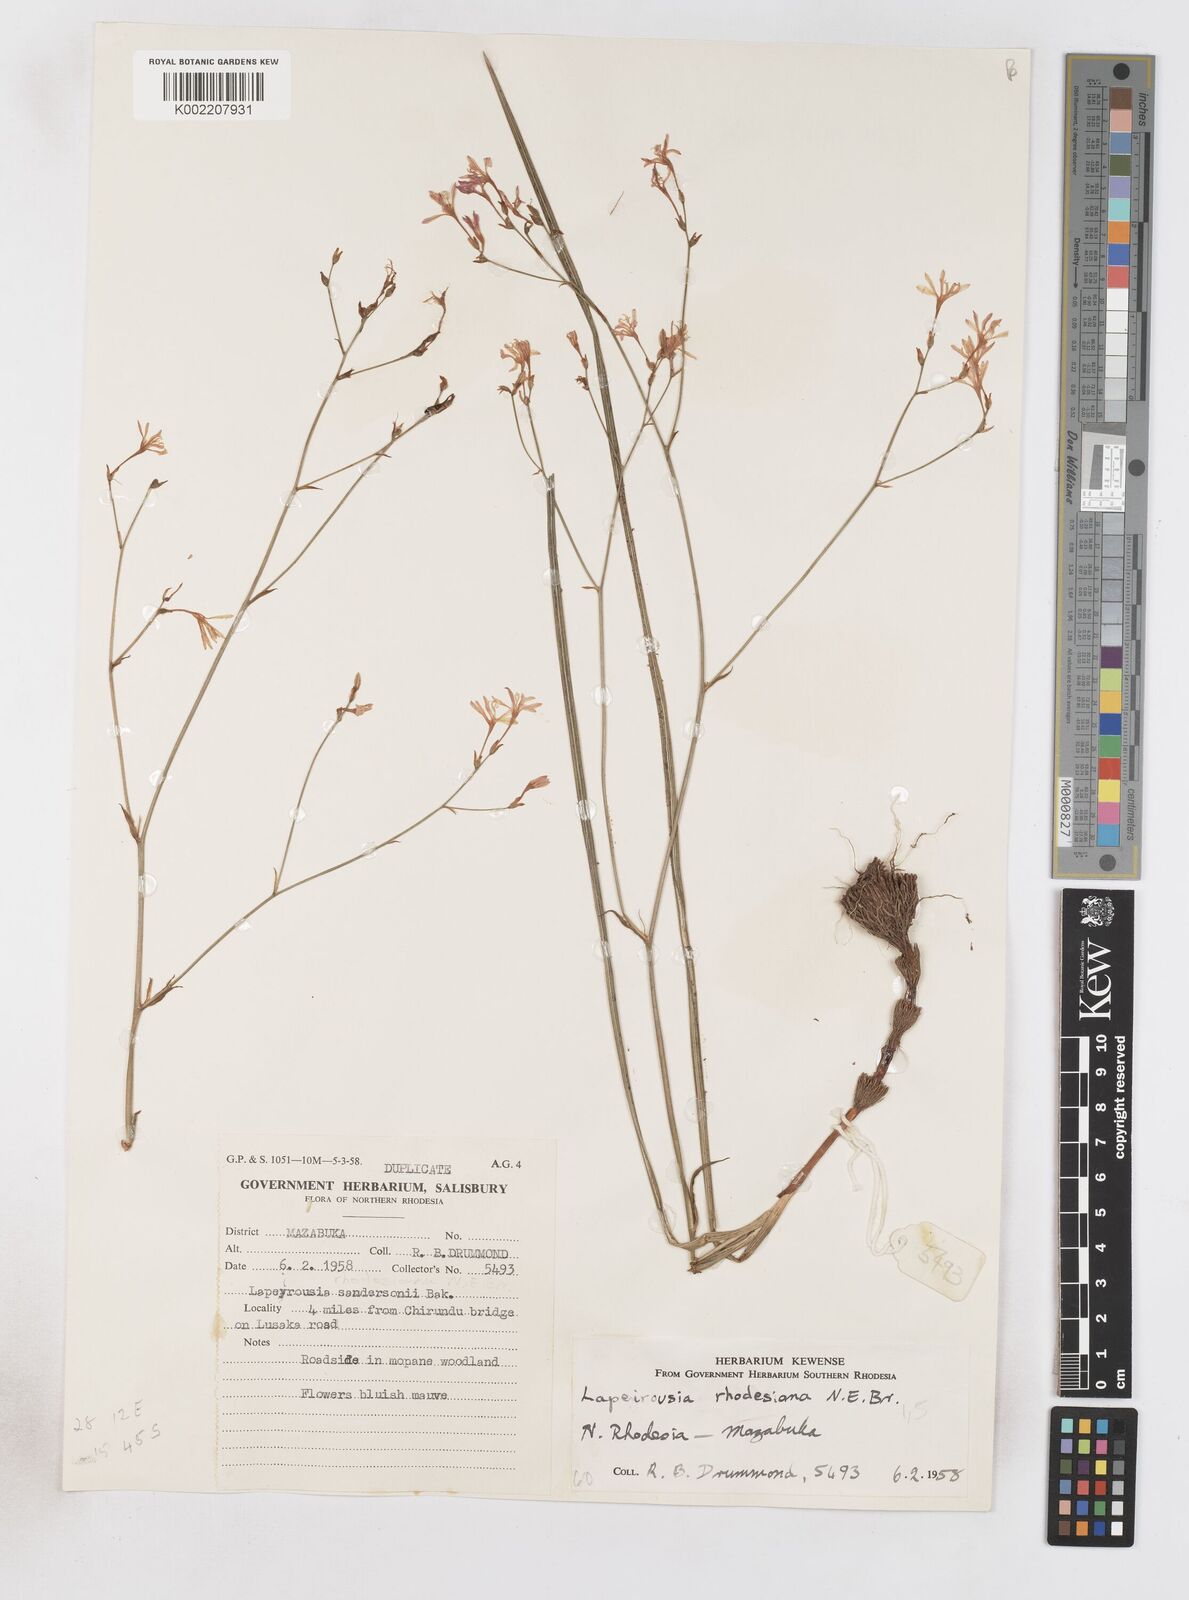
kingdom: Plantae
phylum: Tracheophyta
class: Liliopsida
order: Asparagales
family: Iridaceae
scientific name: Iridaceae
